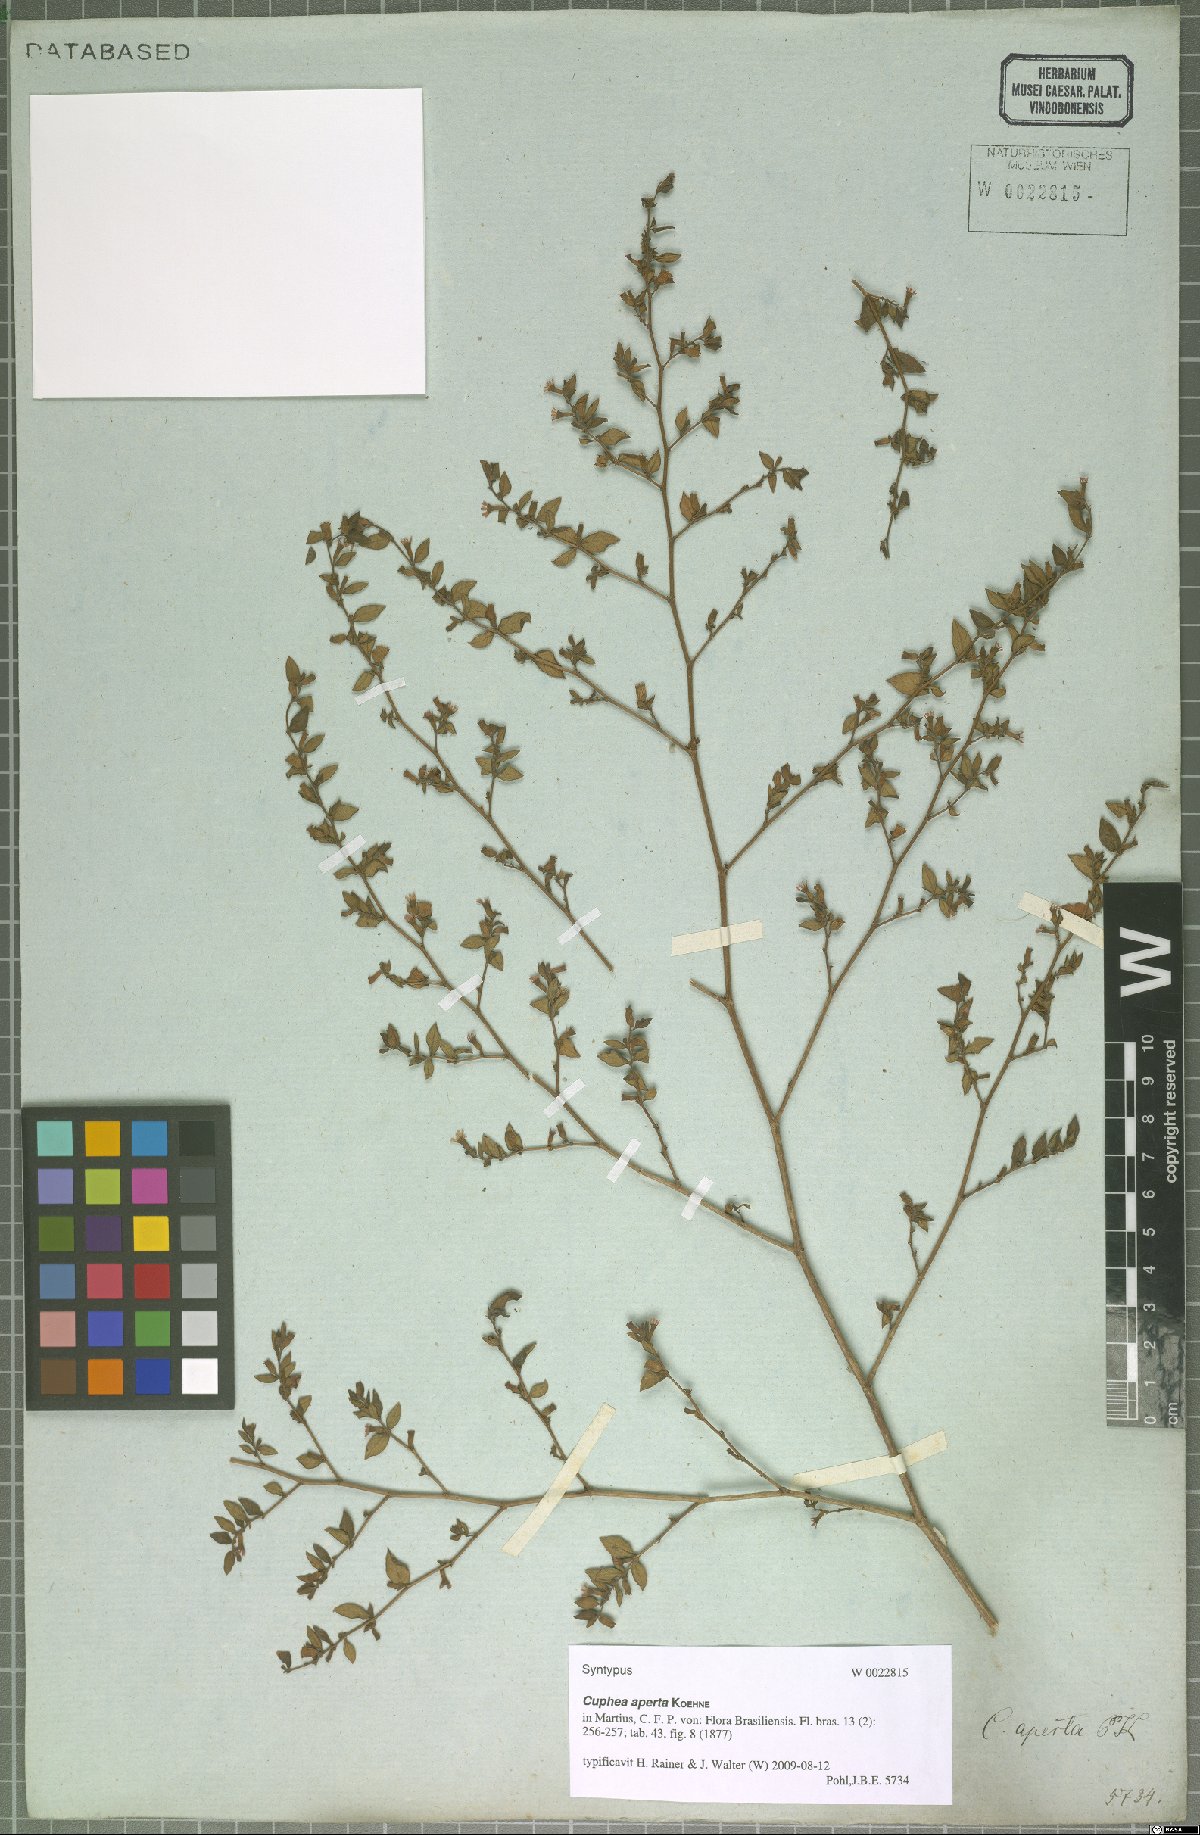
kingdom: Plantae
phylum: Tracheophyta
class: Magnoliopsida
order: Myrtales
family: Lythraceae
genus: Cuphea
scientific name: Cuphea aperta
